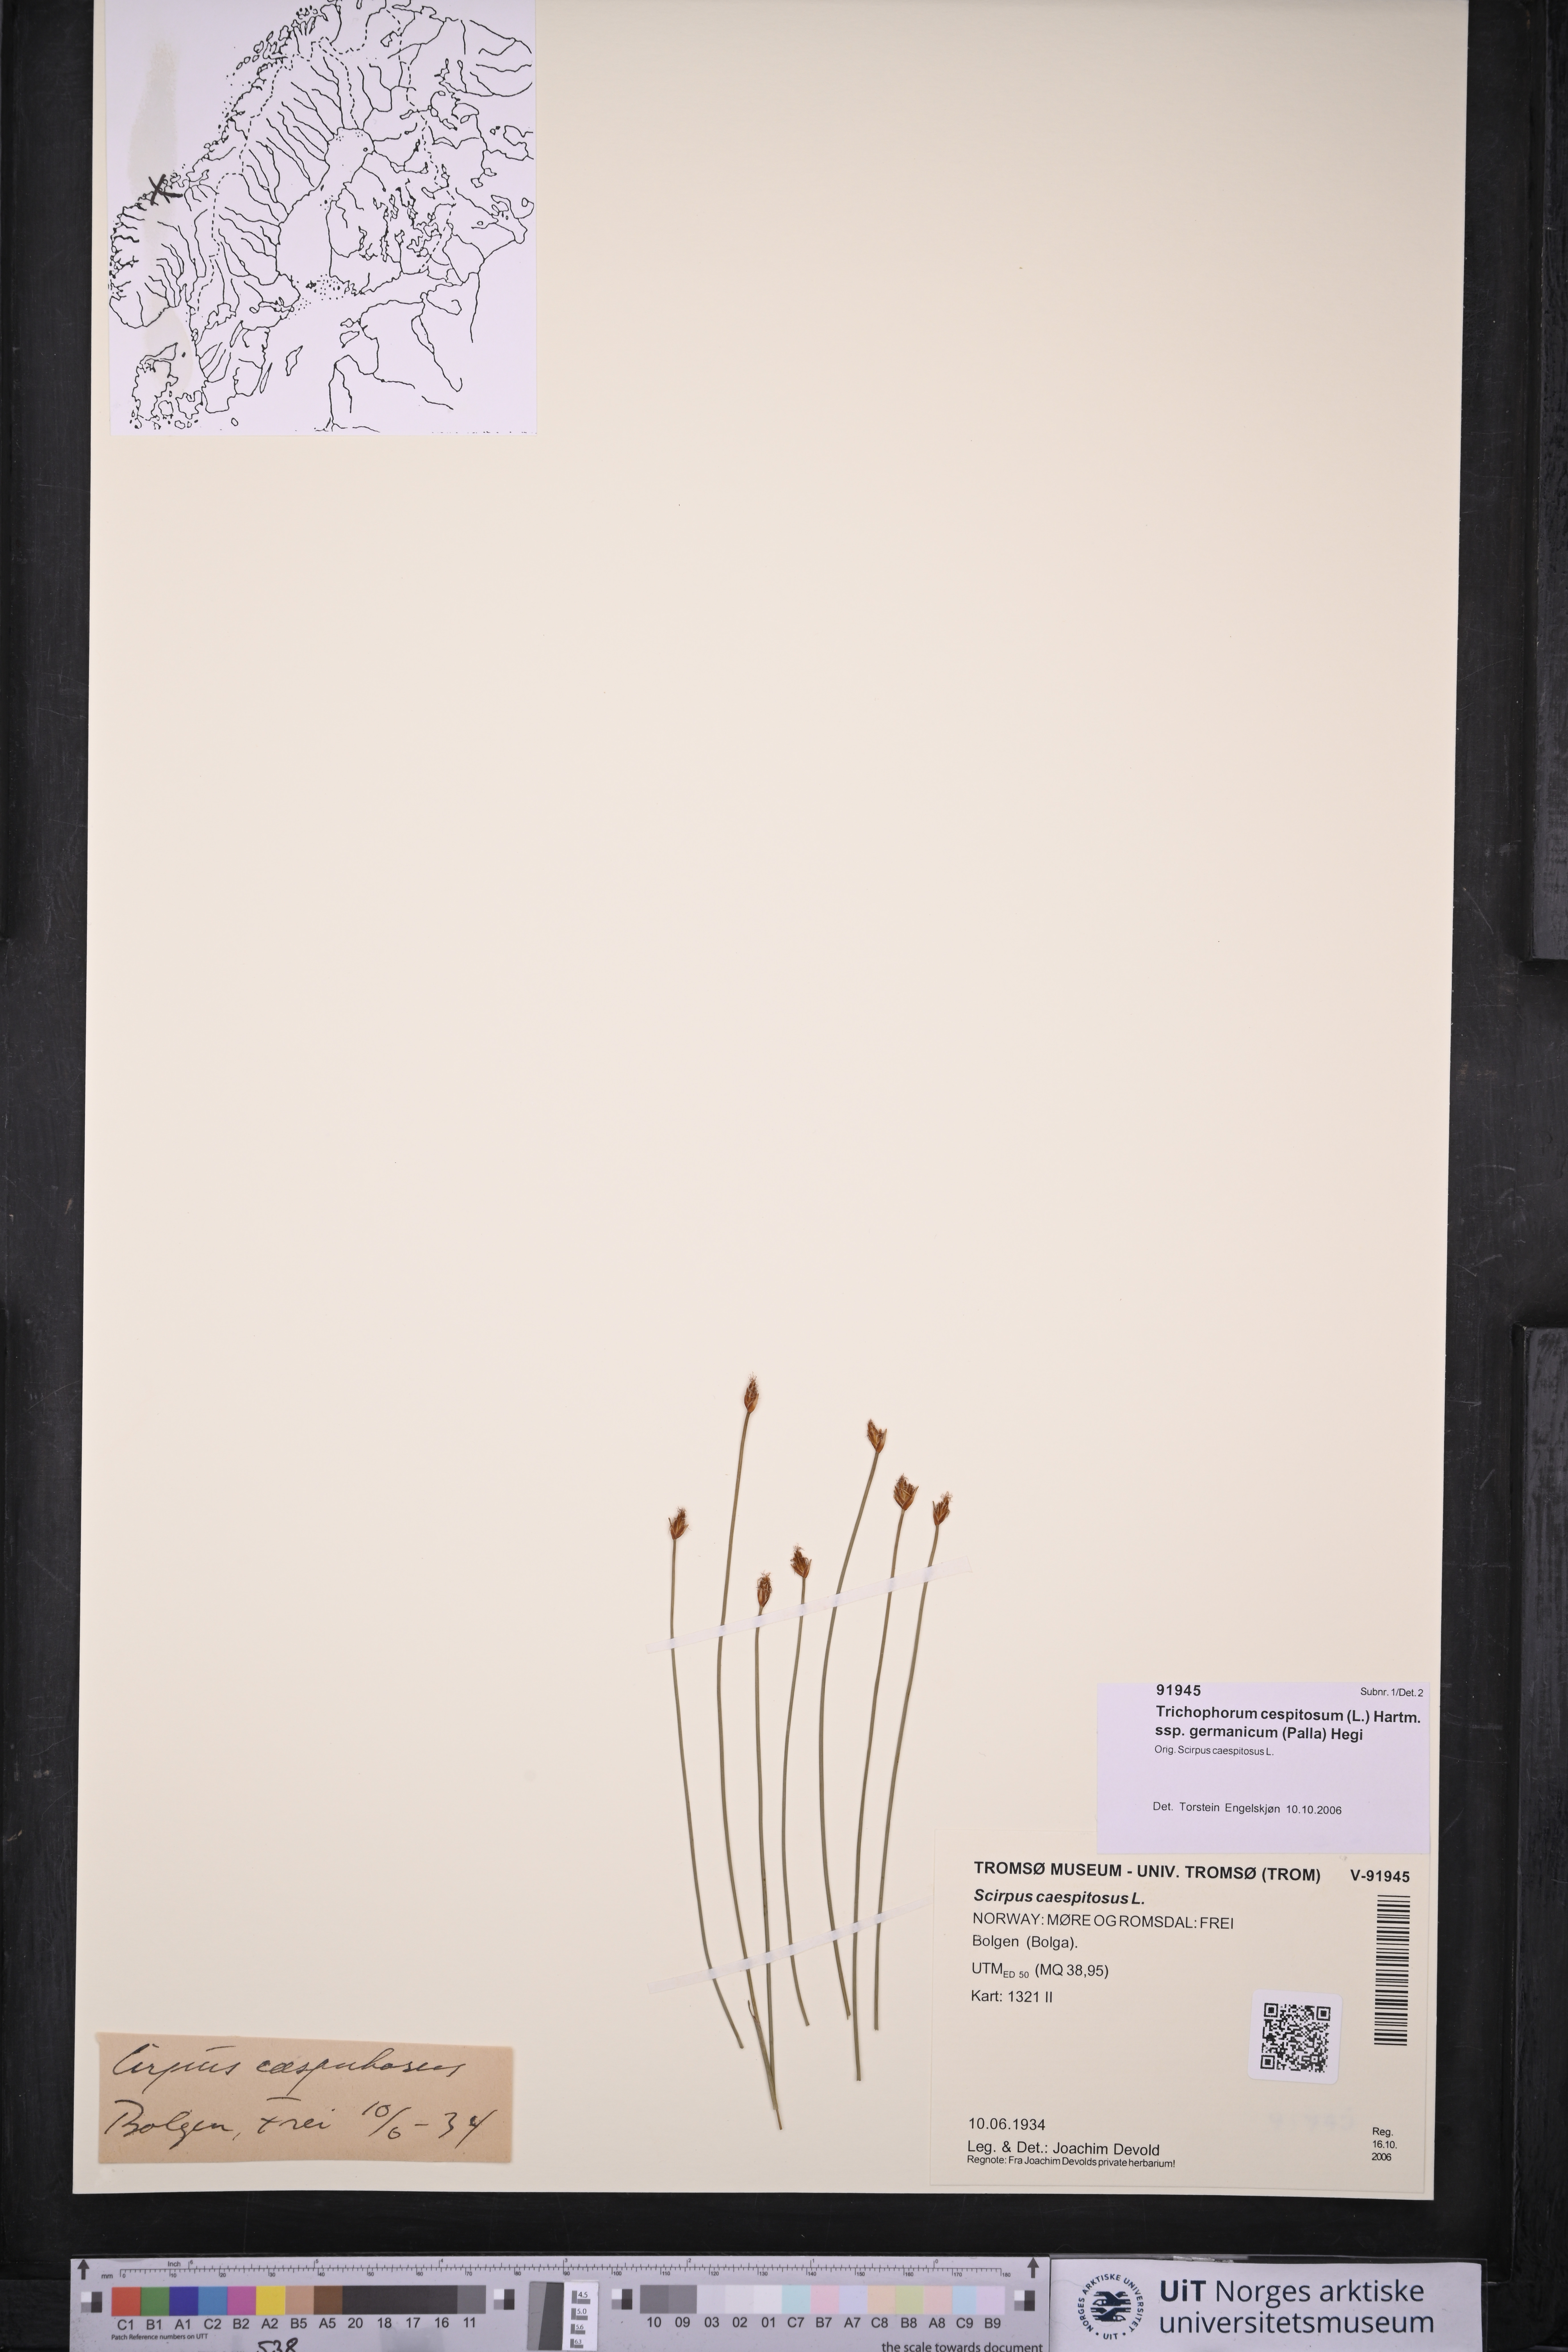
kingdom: Plantae
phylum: Tracheophyta
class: Liliopsida
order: Poales
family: Cyperaceae
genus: Trichophorum
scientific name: Trichophorum cespitosum
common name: Cespitose bulrush
